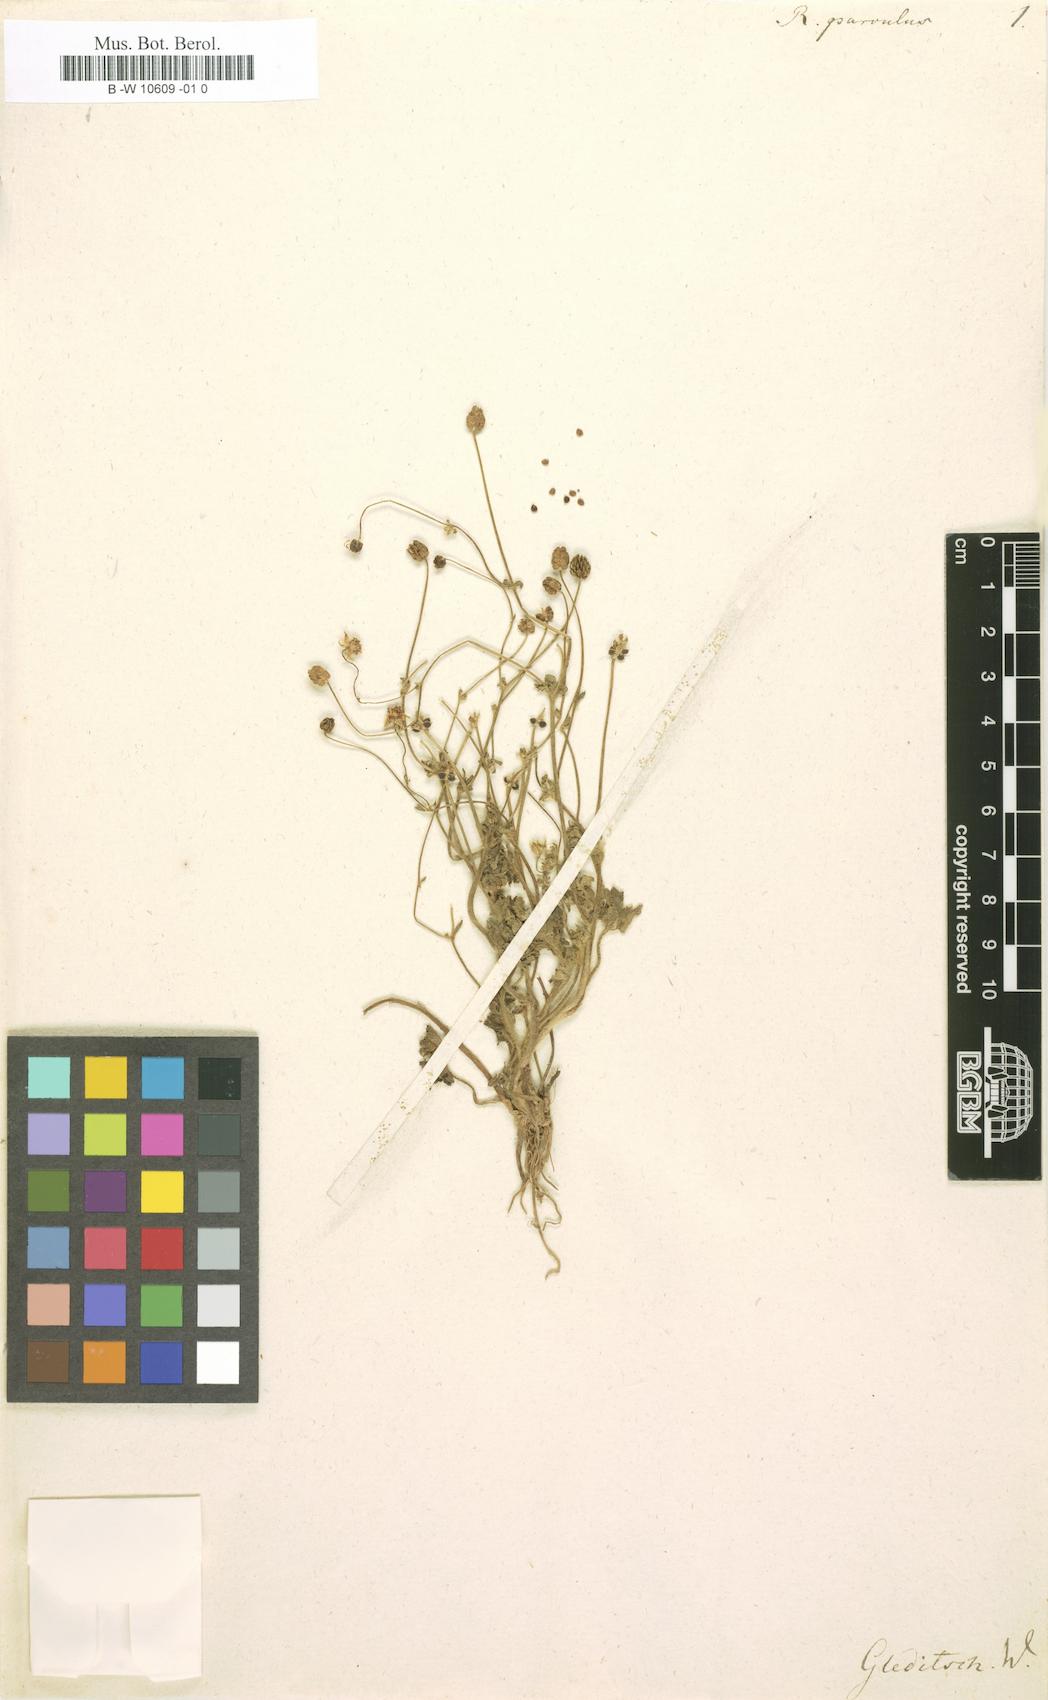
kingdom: Plantae
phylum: Tracheophyta
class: Magnoliopsida
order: Ranunculales
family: Ranunculaceae
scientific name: Ranunculaceae
